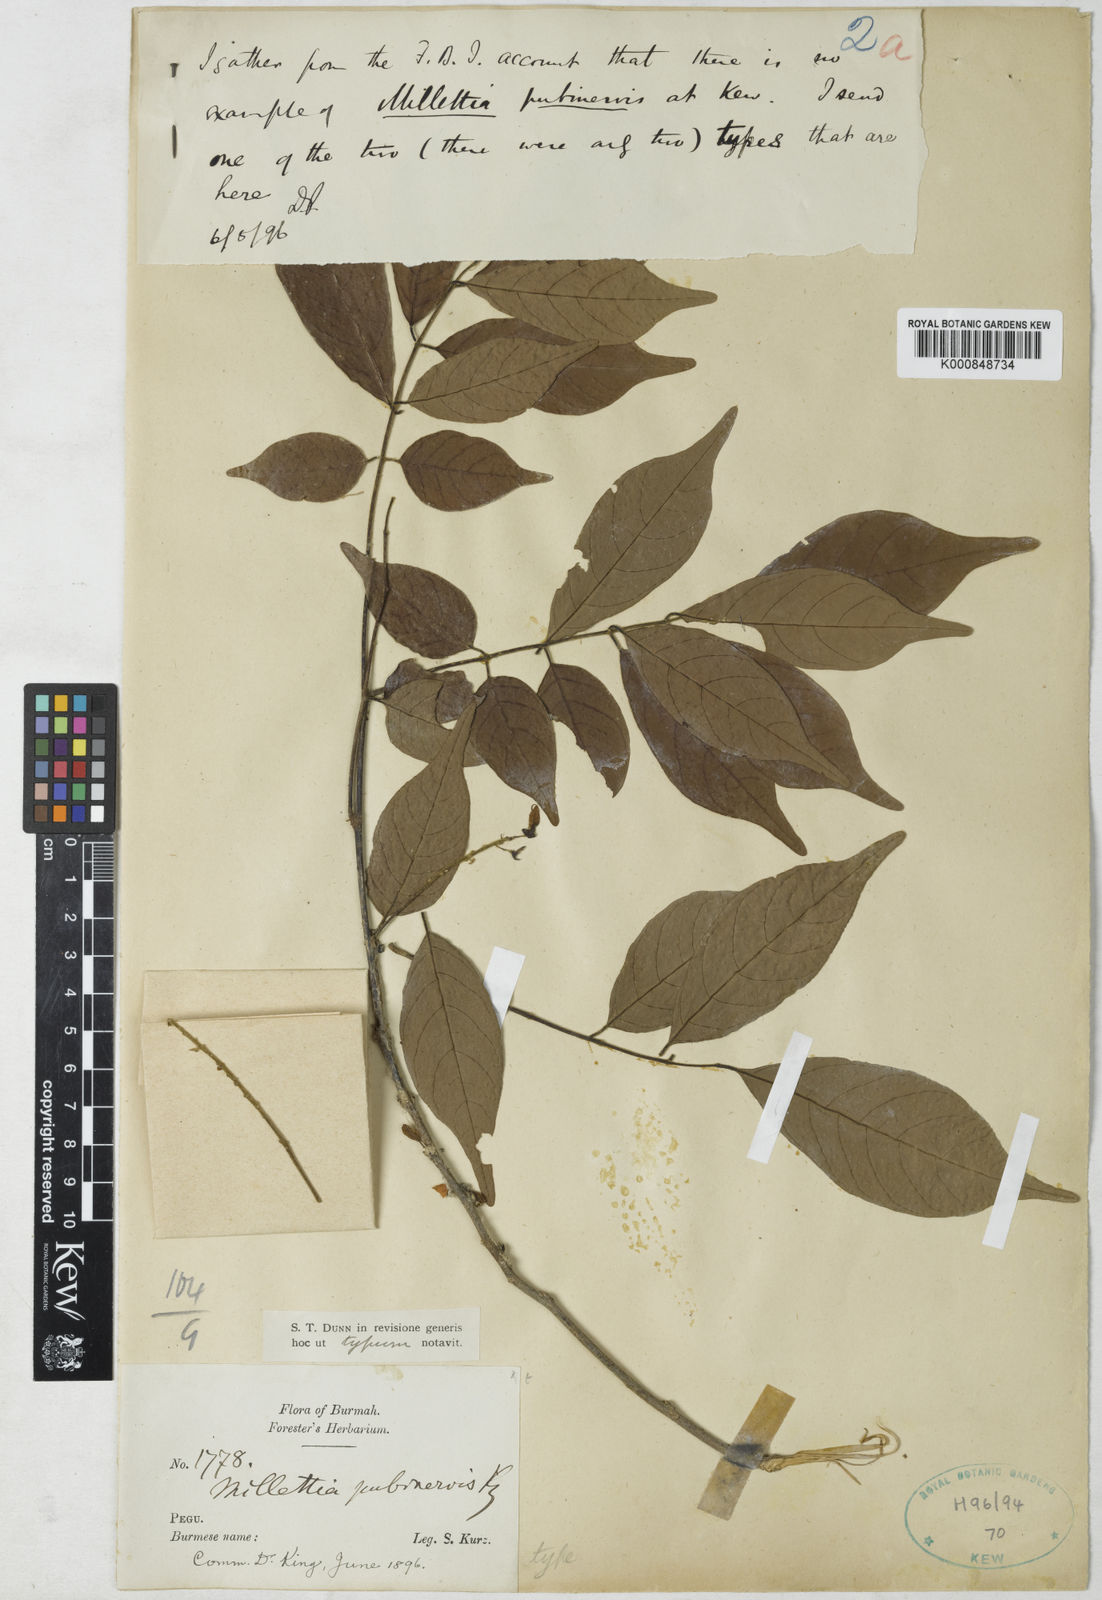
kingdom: Plantae
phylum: Tracheophyta
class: Magnoliopsida
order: Fabales
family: Fabaceae
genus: Millettia
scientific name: Millettia pubinervis
